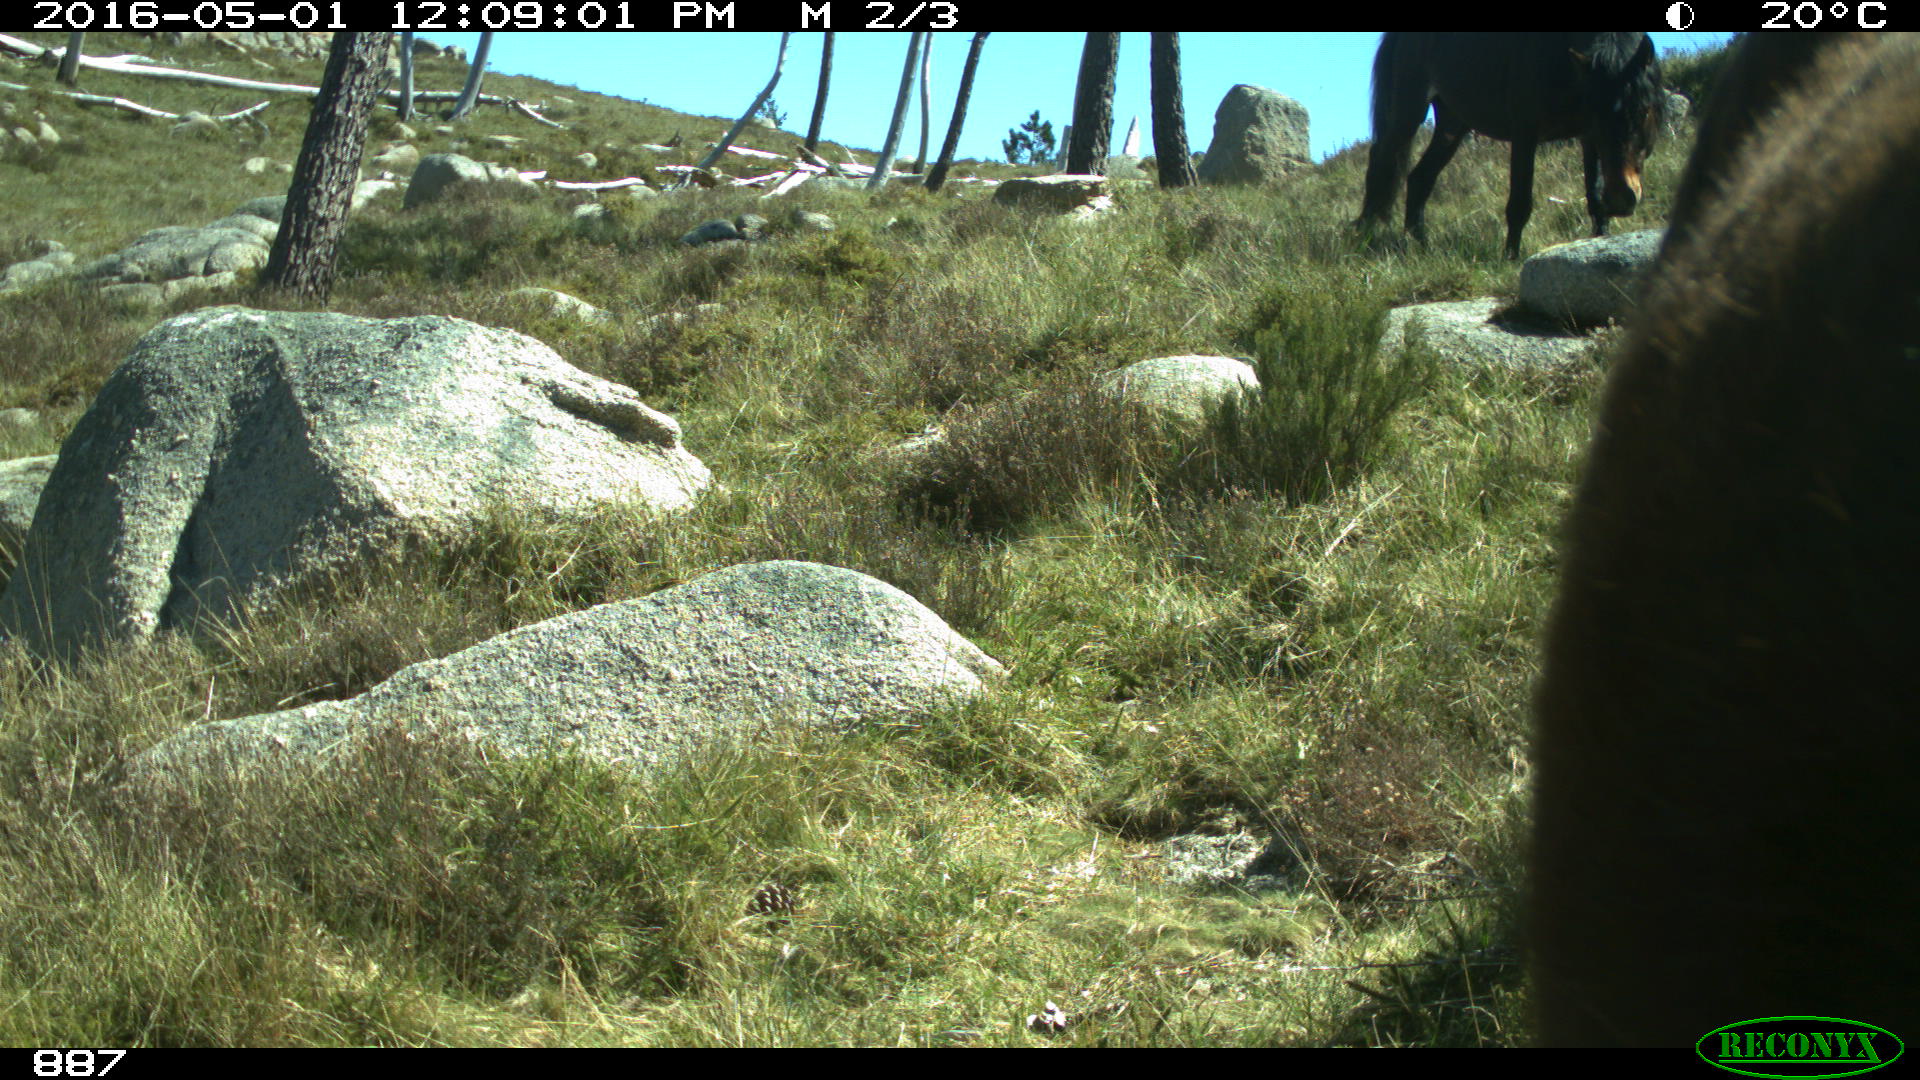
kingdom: Animalia
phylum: Chordata
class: Mammalia
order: Perissodactyla
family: Equidae
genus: Equus
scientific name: Equus caballus
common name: Horse
